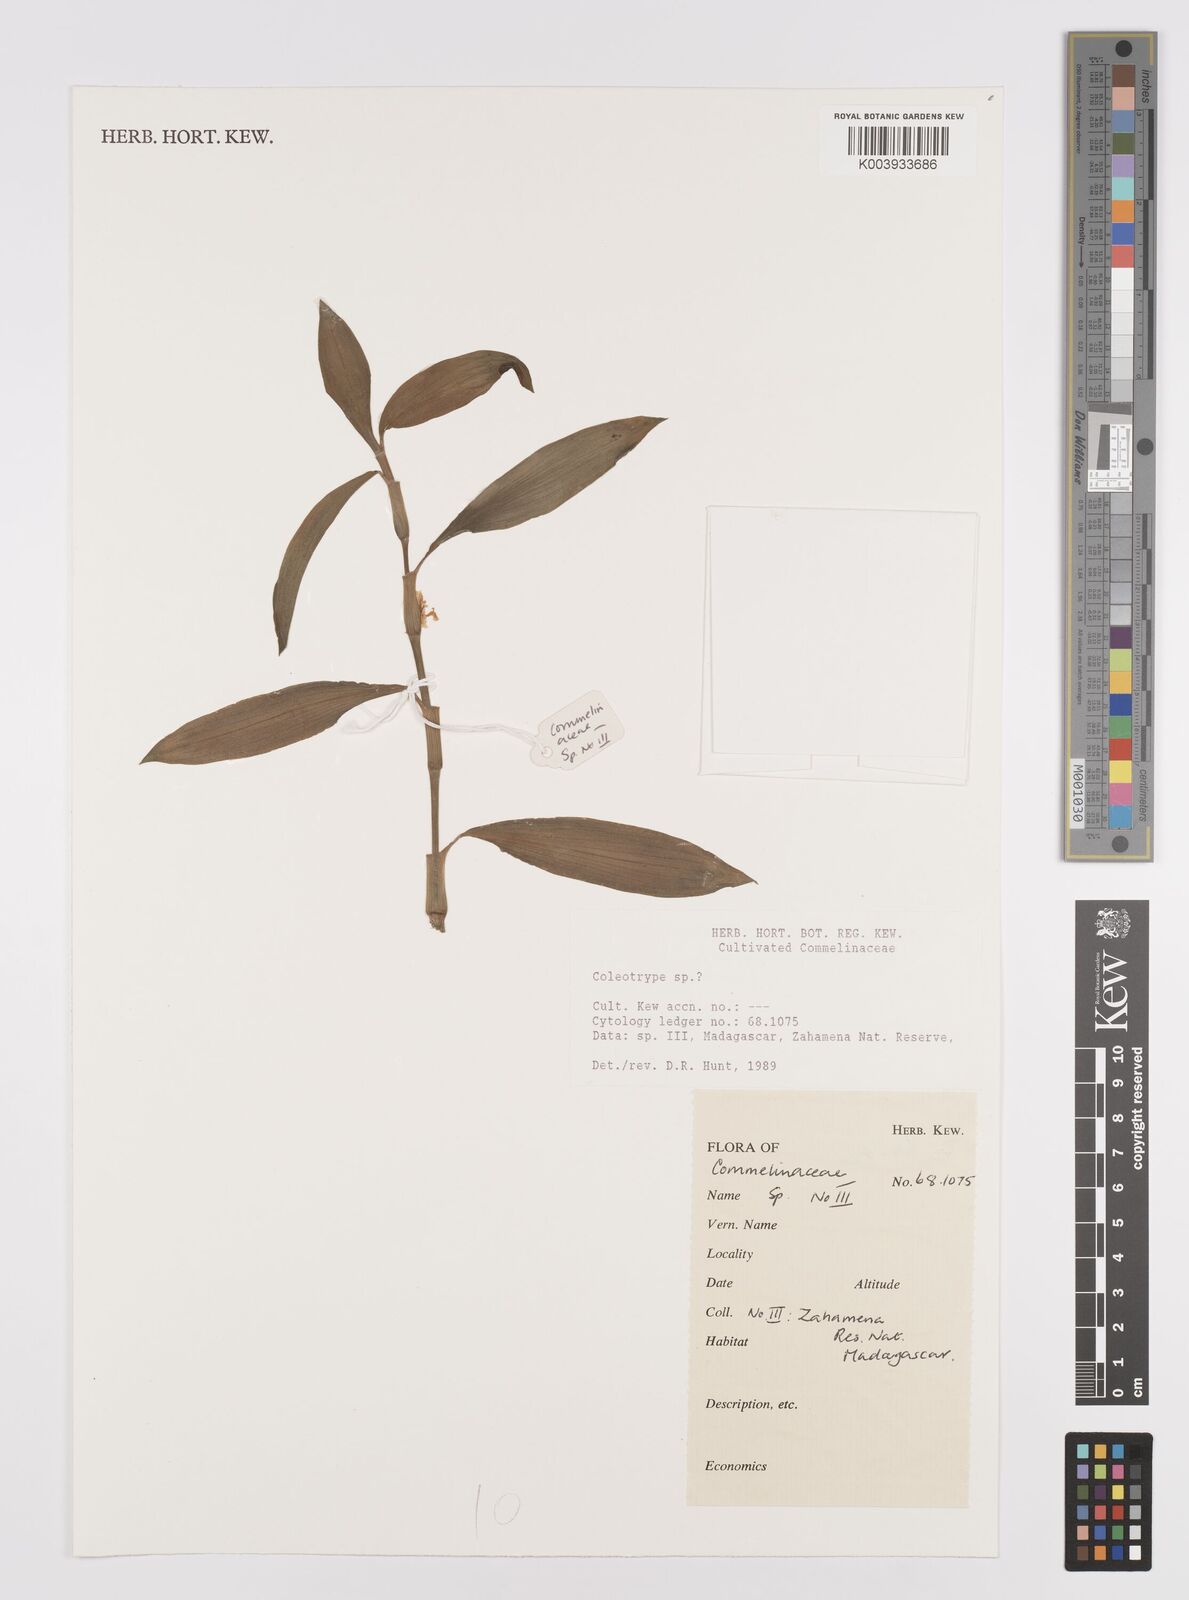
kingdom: Plantae
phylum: Tracheophyta
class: Liliopsida
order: Commelinales
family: Commelinaceae
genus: Coleotrype
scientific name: Coleotrype
